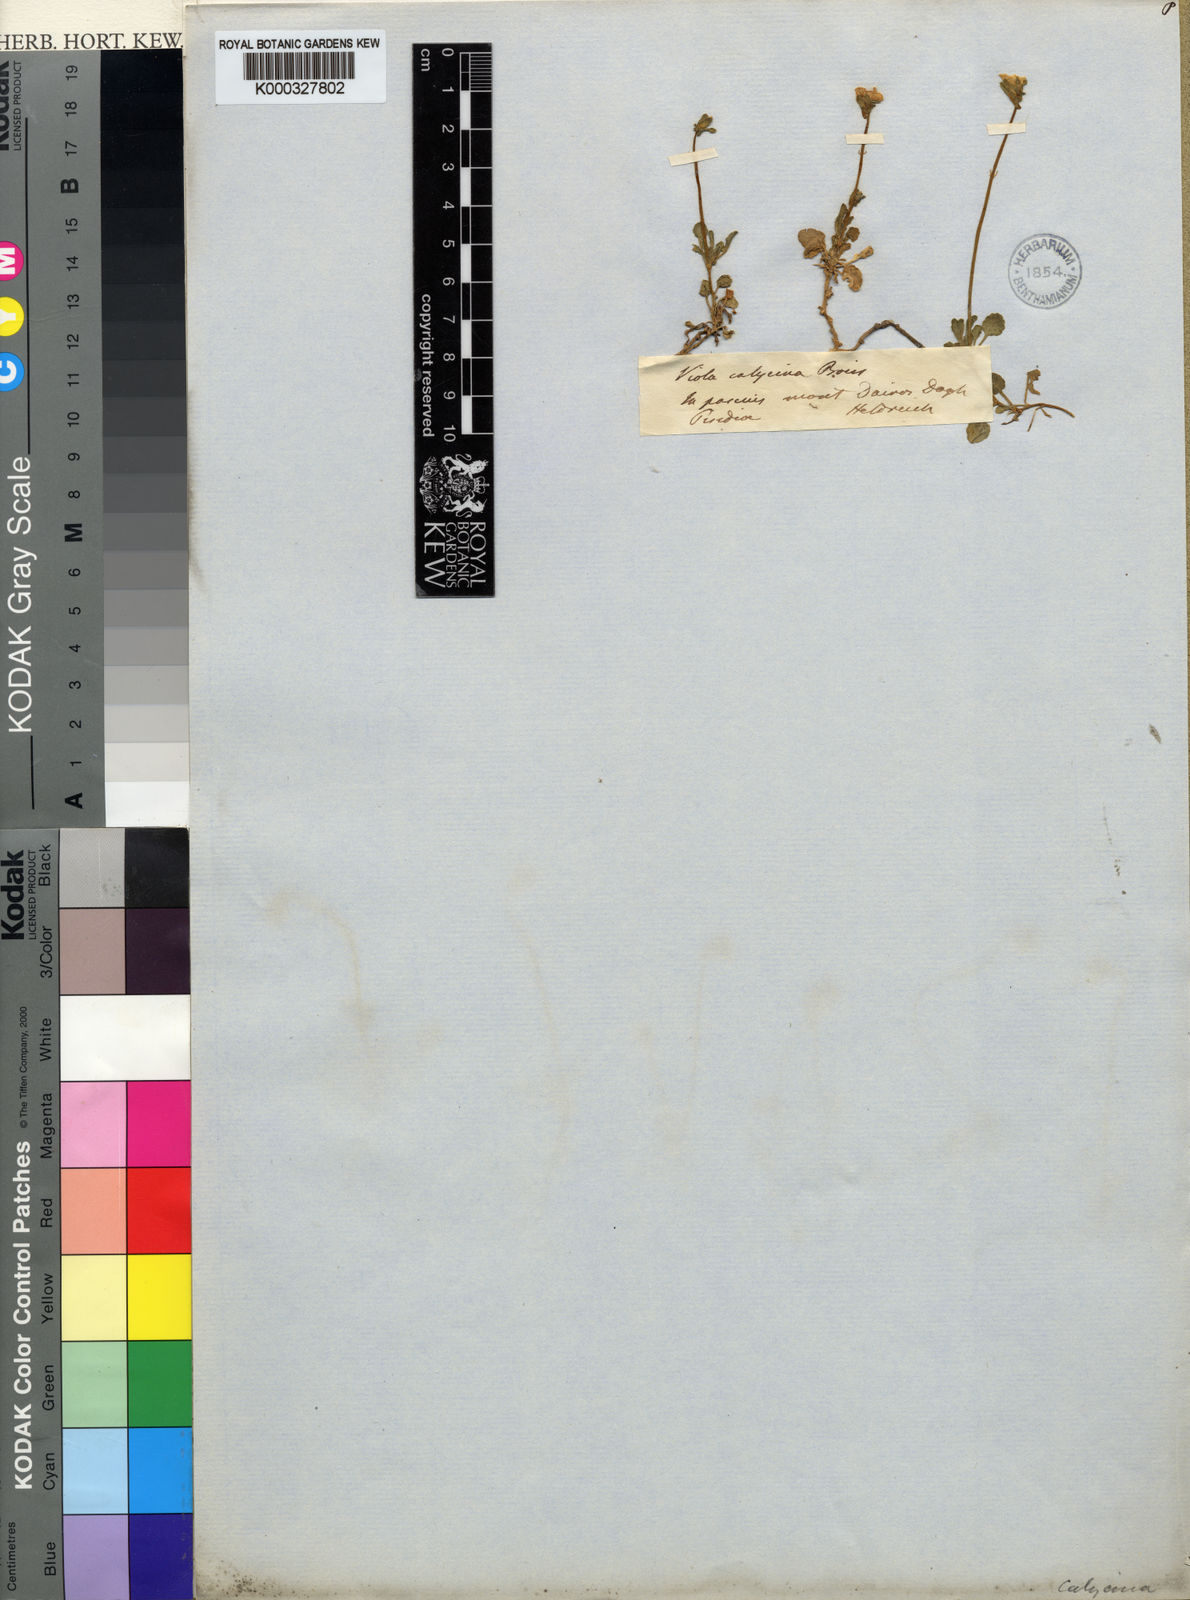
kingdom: Plantae
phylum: Tracheophyta
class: Magnoliopsida
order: Malpighiales
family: Violaceae
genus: Viola
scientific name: Viola gracilis
